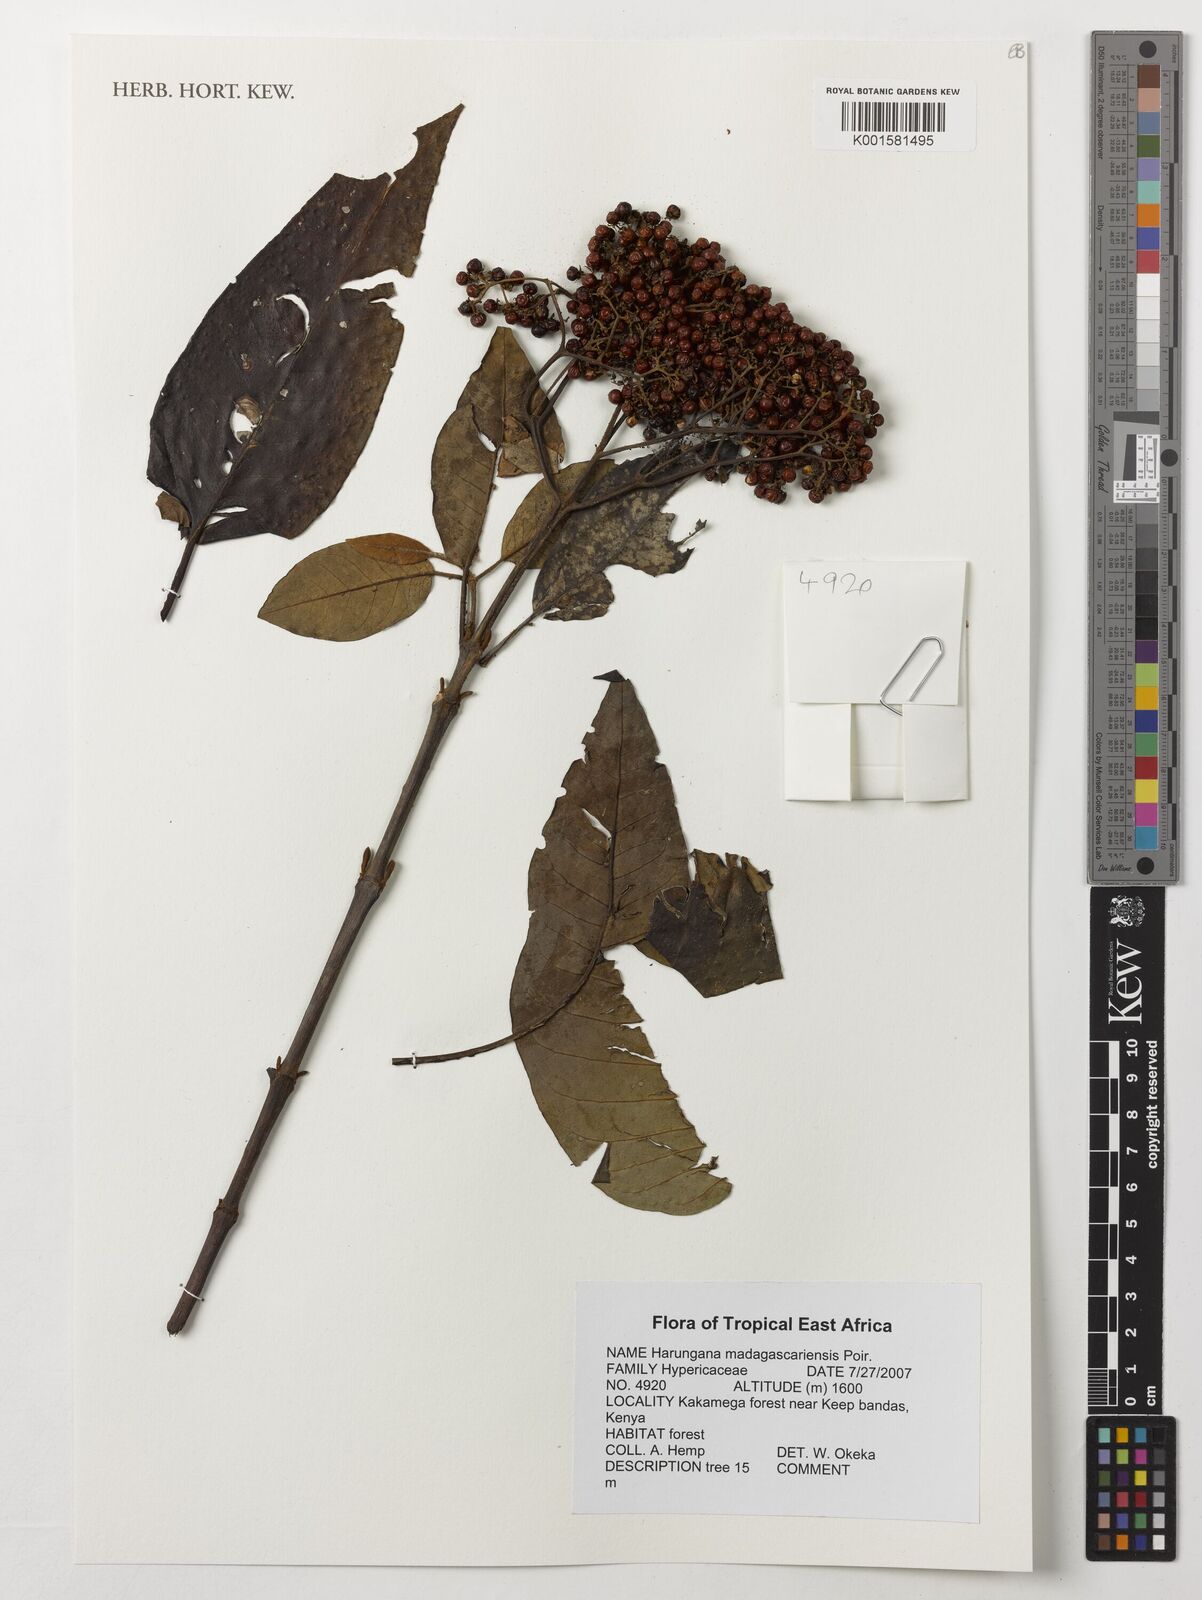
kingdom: Plantae
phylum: Tracheophyta
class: Magnoliopsida
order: Malpighiales
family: Hypericaceae
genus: Harungana
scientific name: Harungana madagascariensis
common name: Orange milktree
